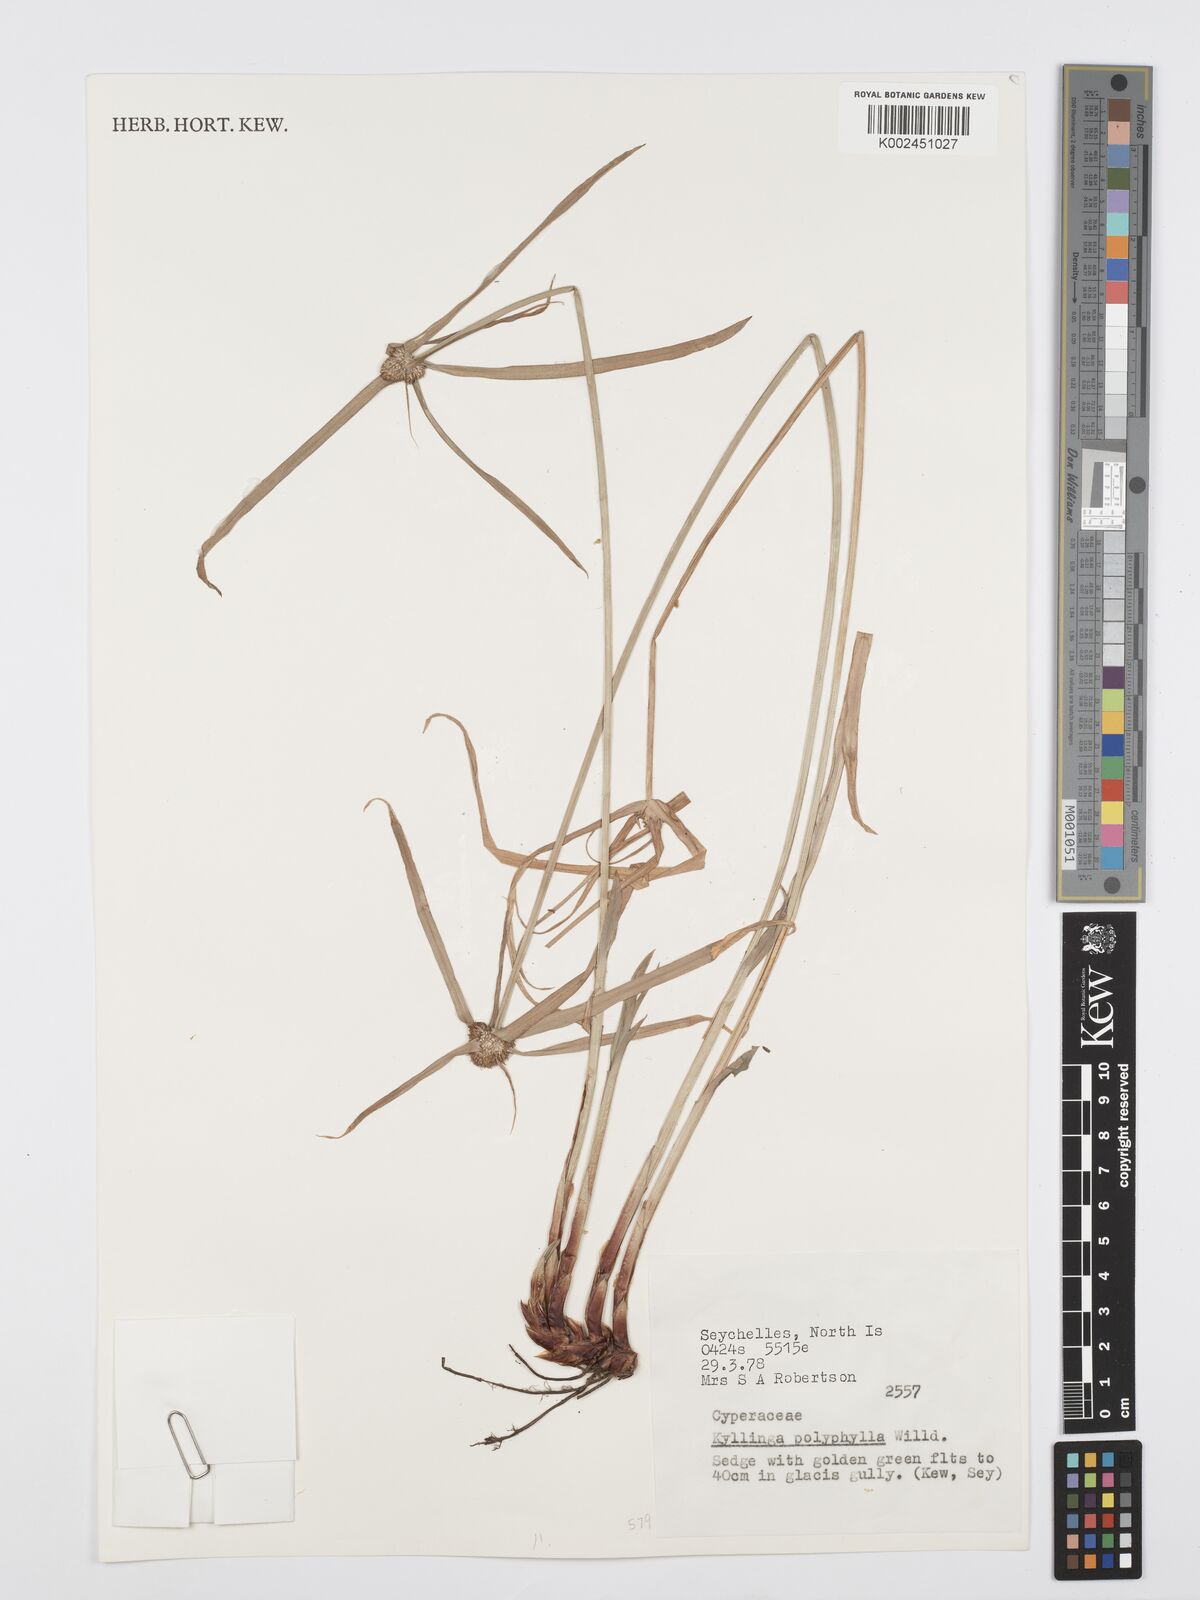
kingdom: Plantae
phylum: Tracheophyta
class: Liliopsida
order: Poales
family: Cyperaceae
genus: Cyperus
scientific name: Cyperus bulbosus
